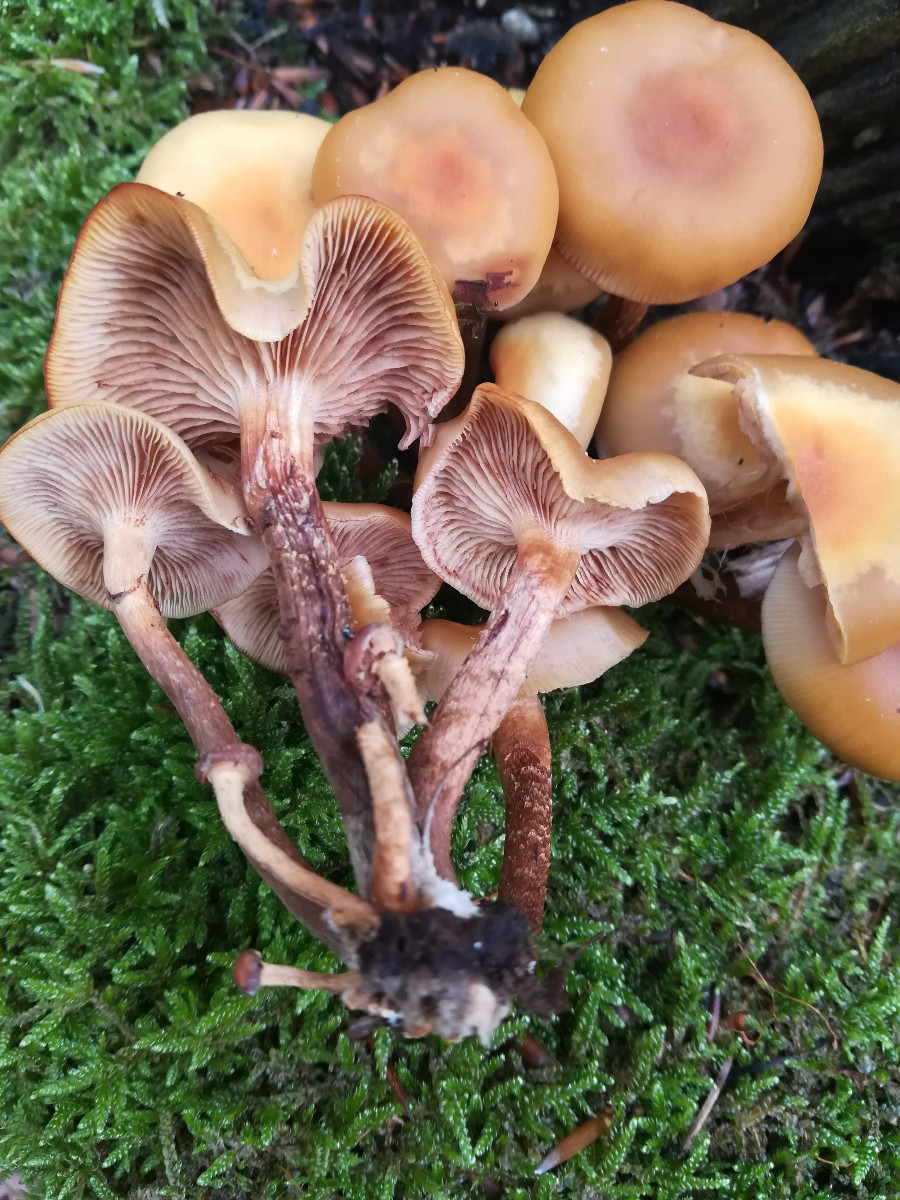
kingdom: Fungi
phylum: Basidiomycota
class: Agaricomycetes
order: Agaricales
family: Strophariaceae
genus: Kuehneromyces
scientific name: Kuehneromyces mutabilis
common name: foranderlig skælhat
